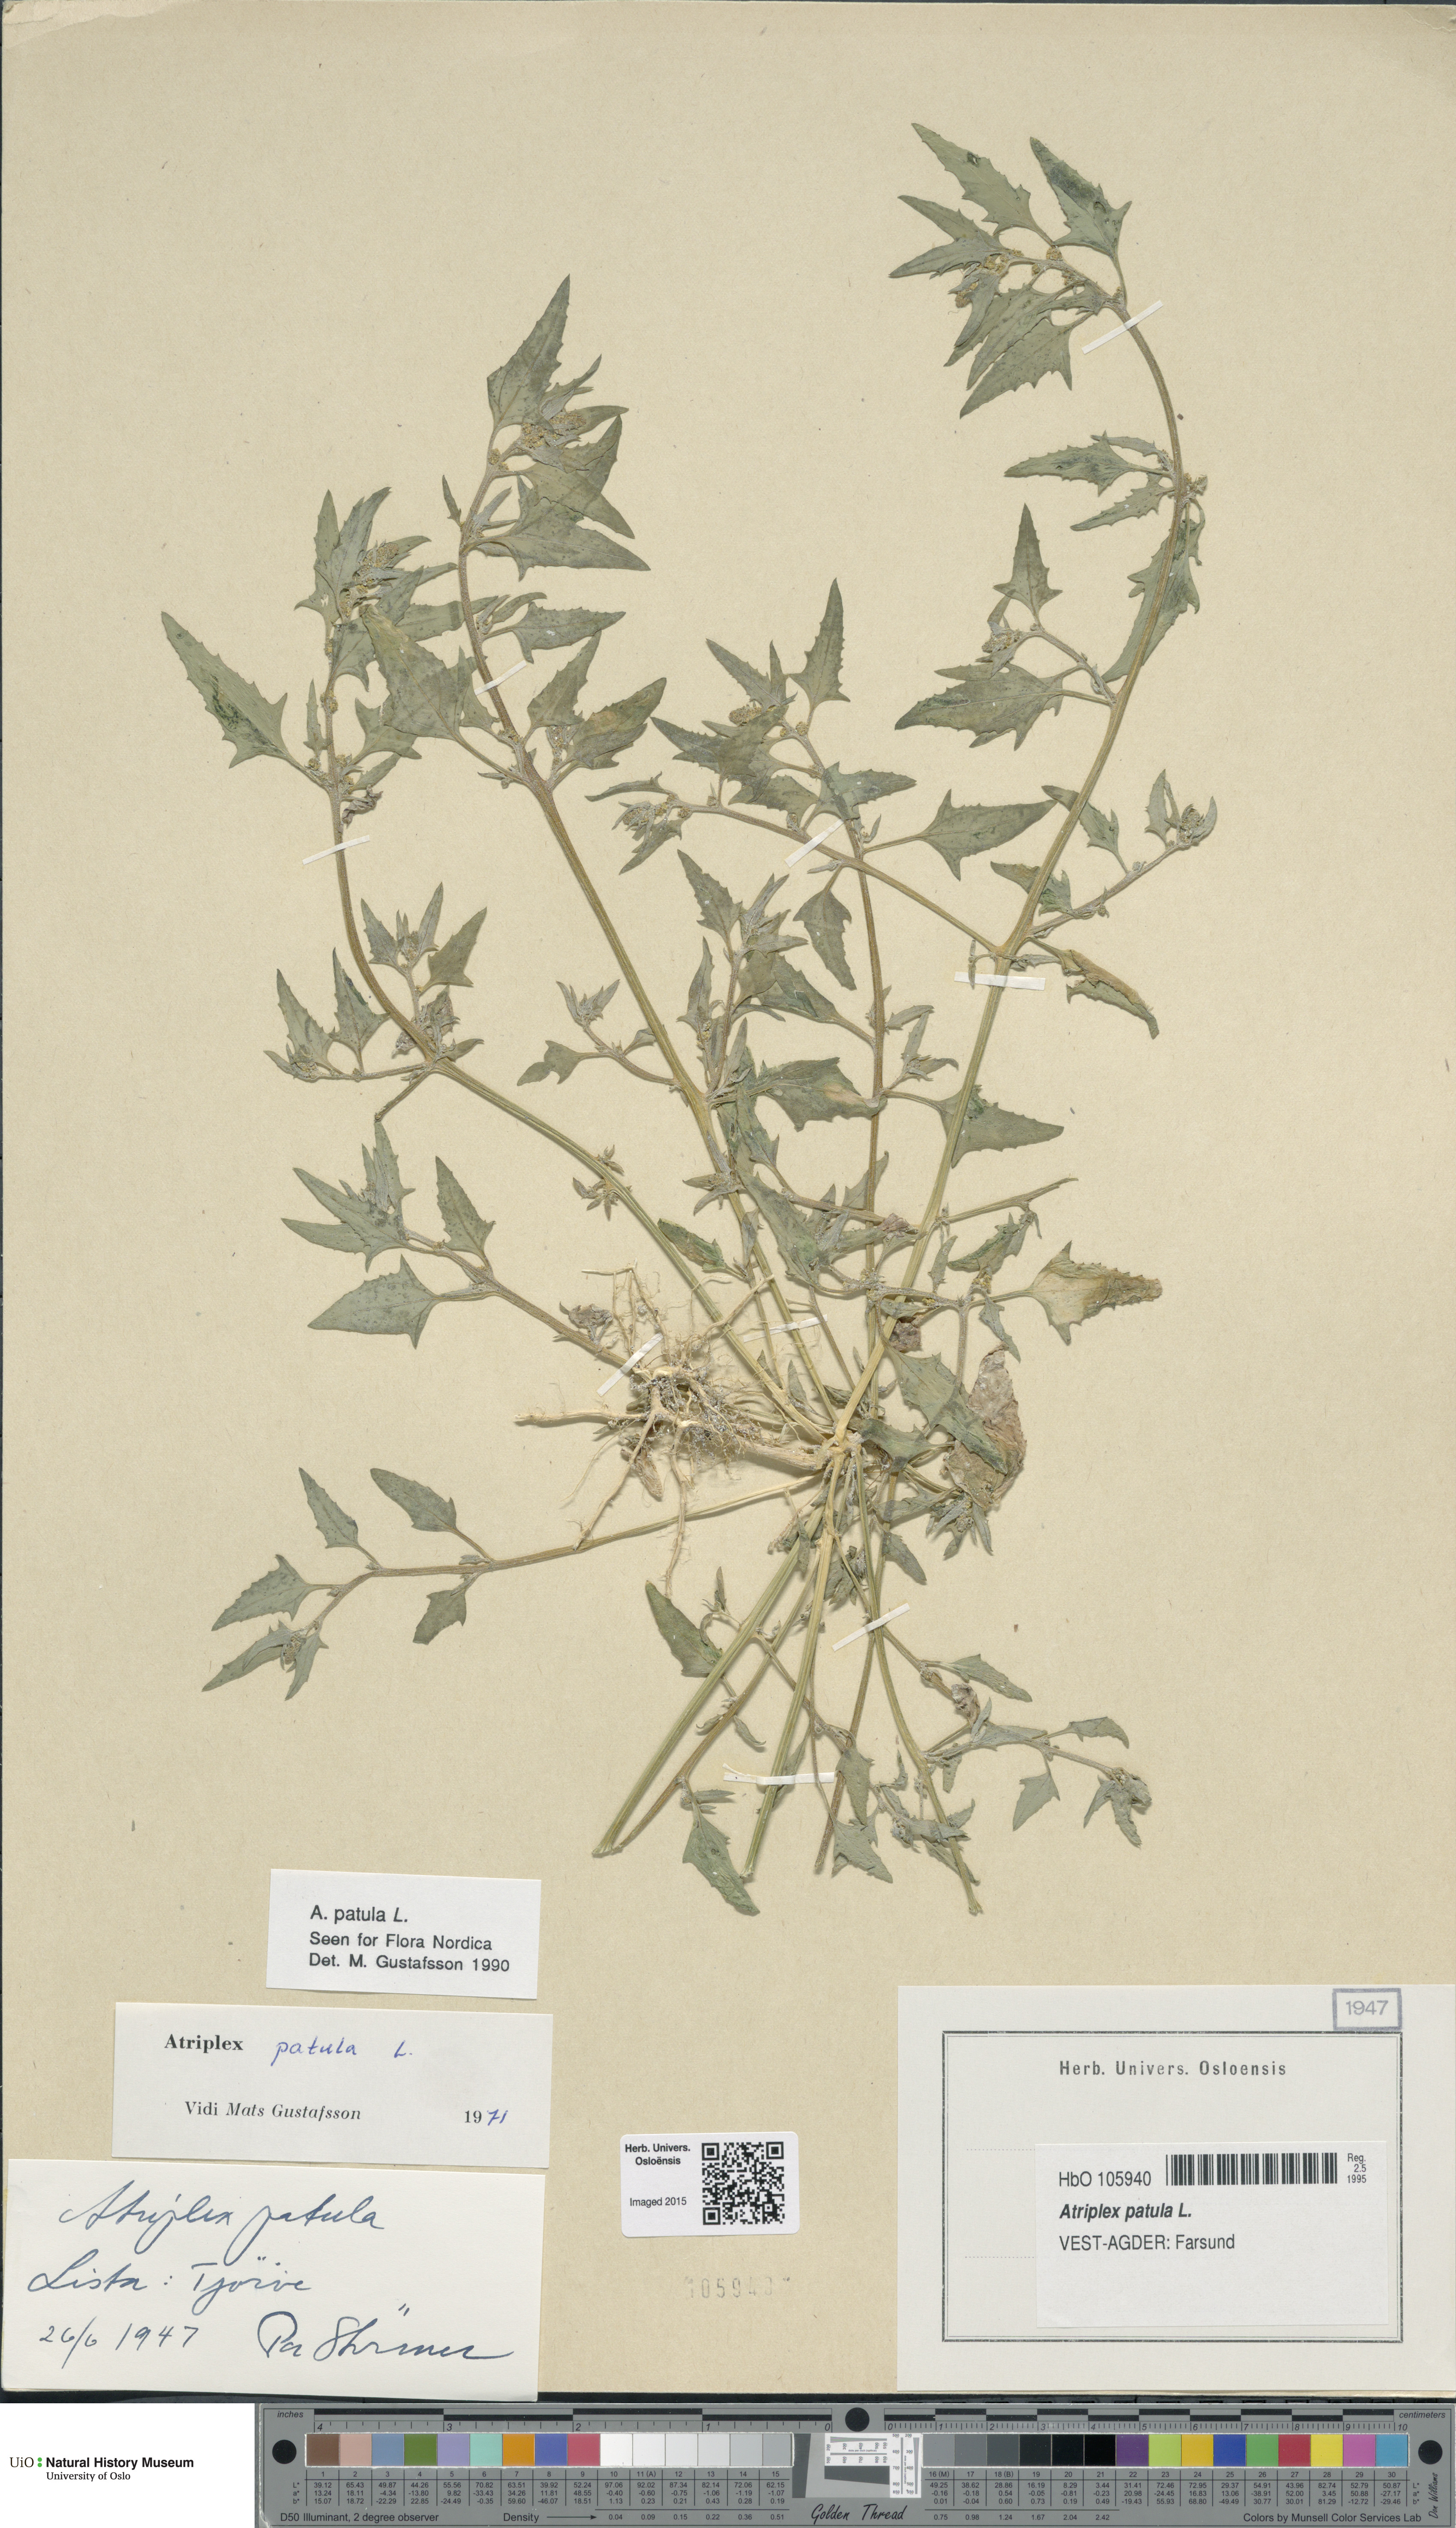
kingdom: Plantae
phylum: Tracheophyta
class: Magnoliopsida
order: Caryophyllales
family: Amaranthaceae
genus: Atriplex
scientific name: Atriplex patula
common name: Common orache
